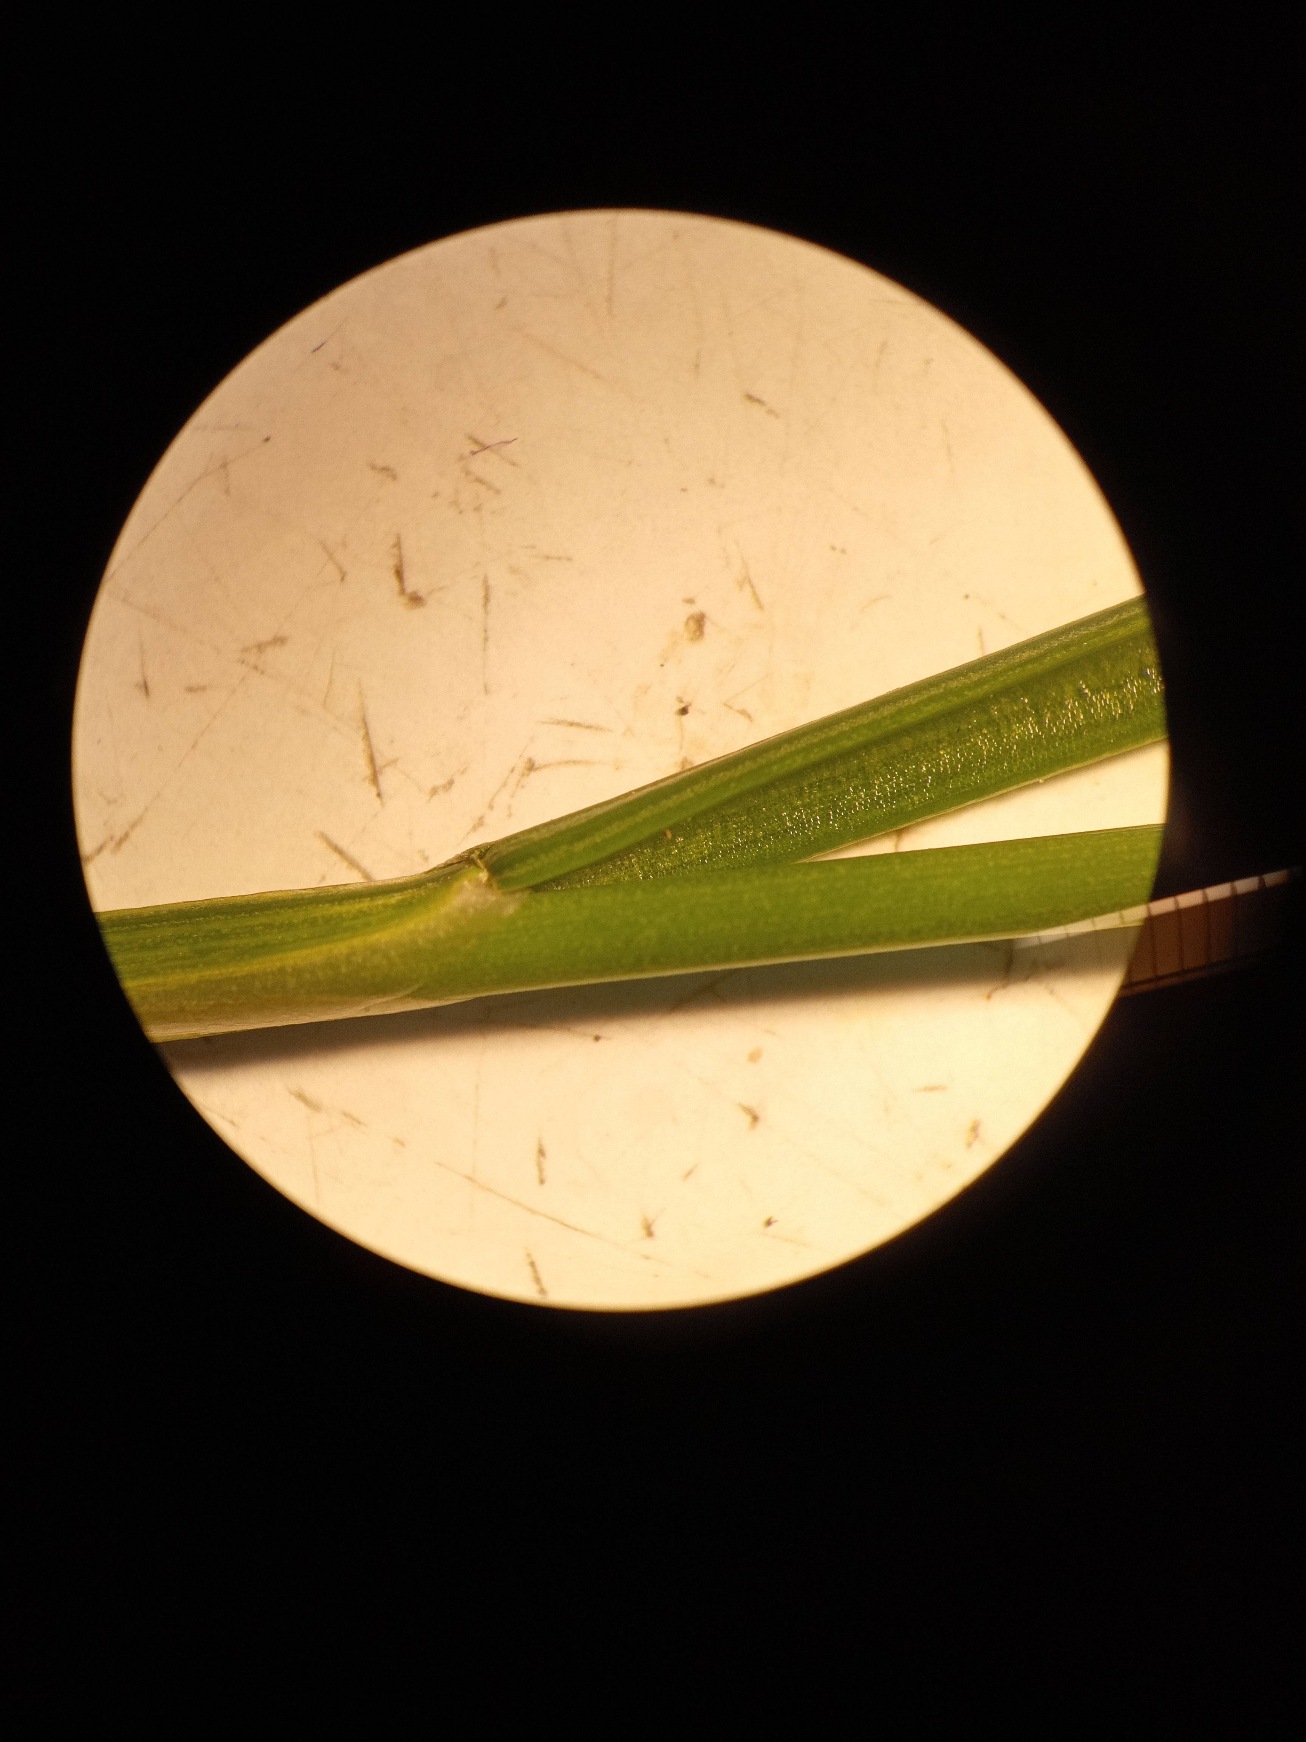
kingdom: Plantae
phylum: Tracheophyta
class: Liliopsida
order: Poales
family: Juncaceae
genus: Juncus
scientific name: Juncus compressus
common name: Fladstrået siv
